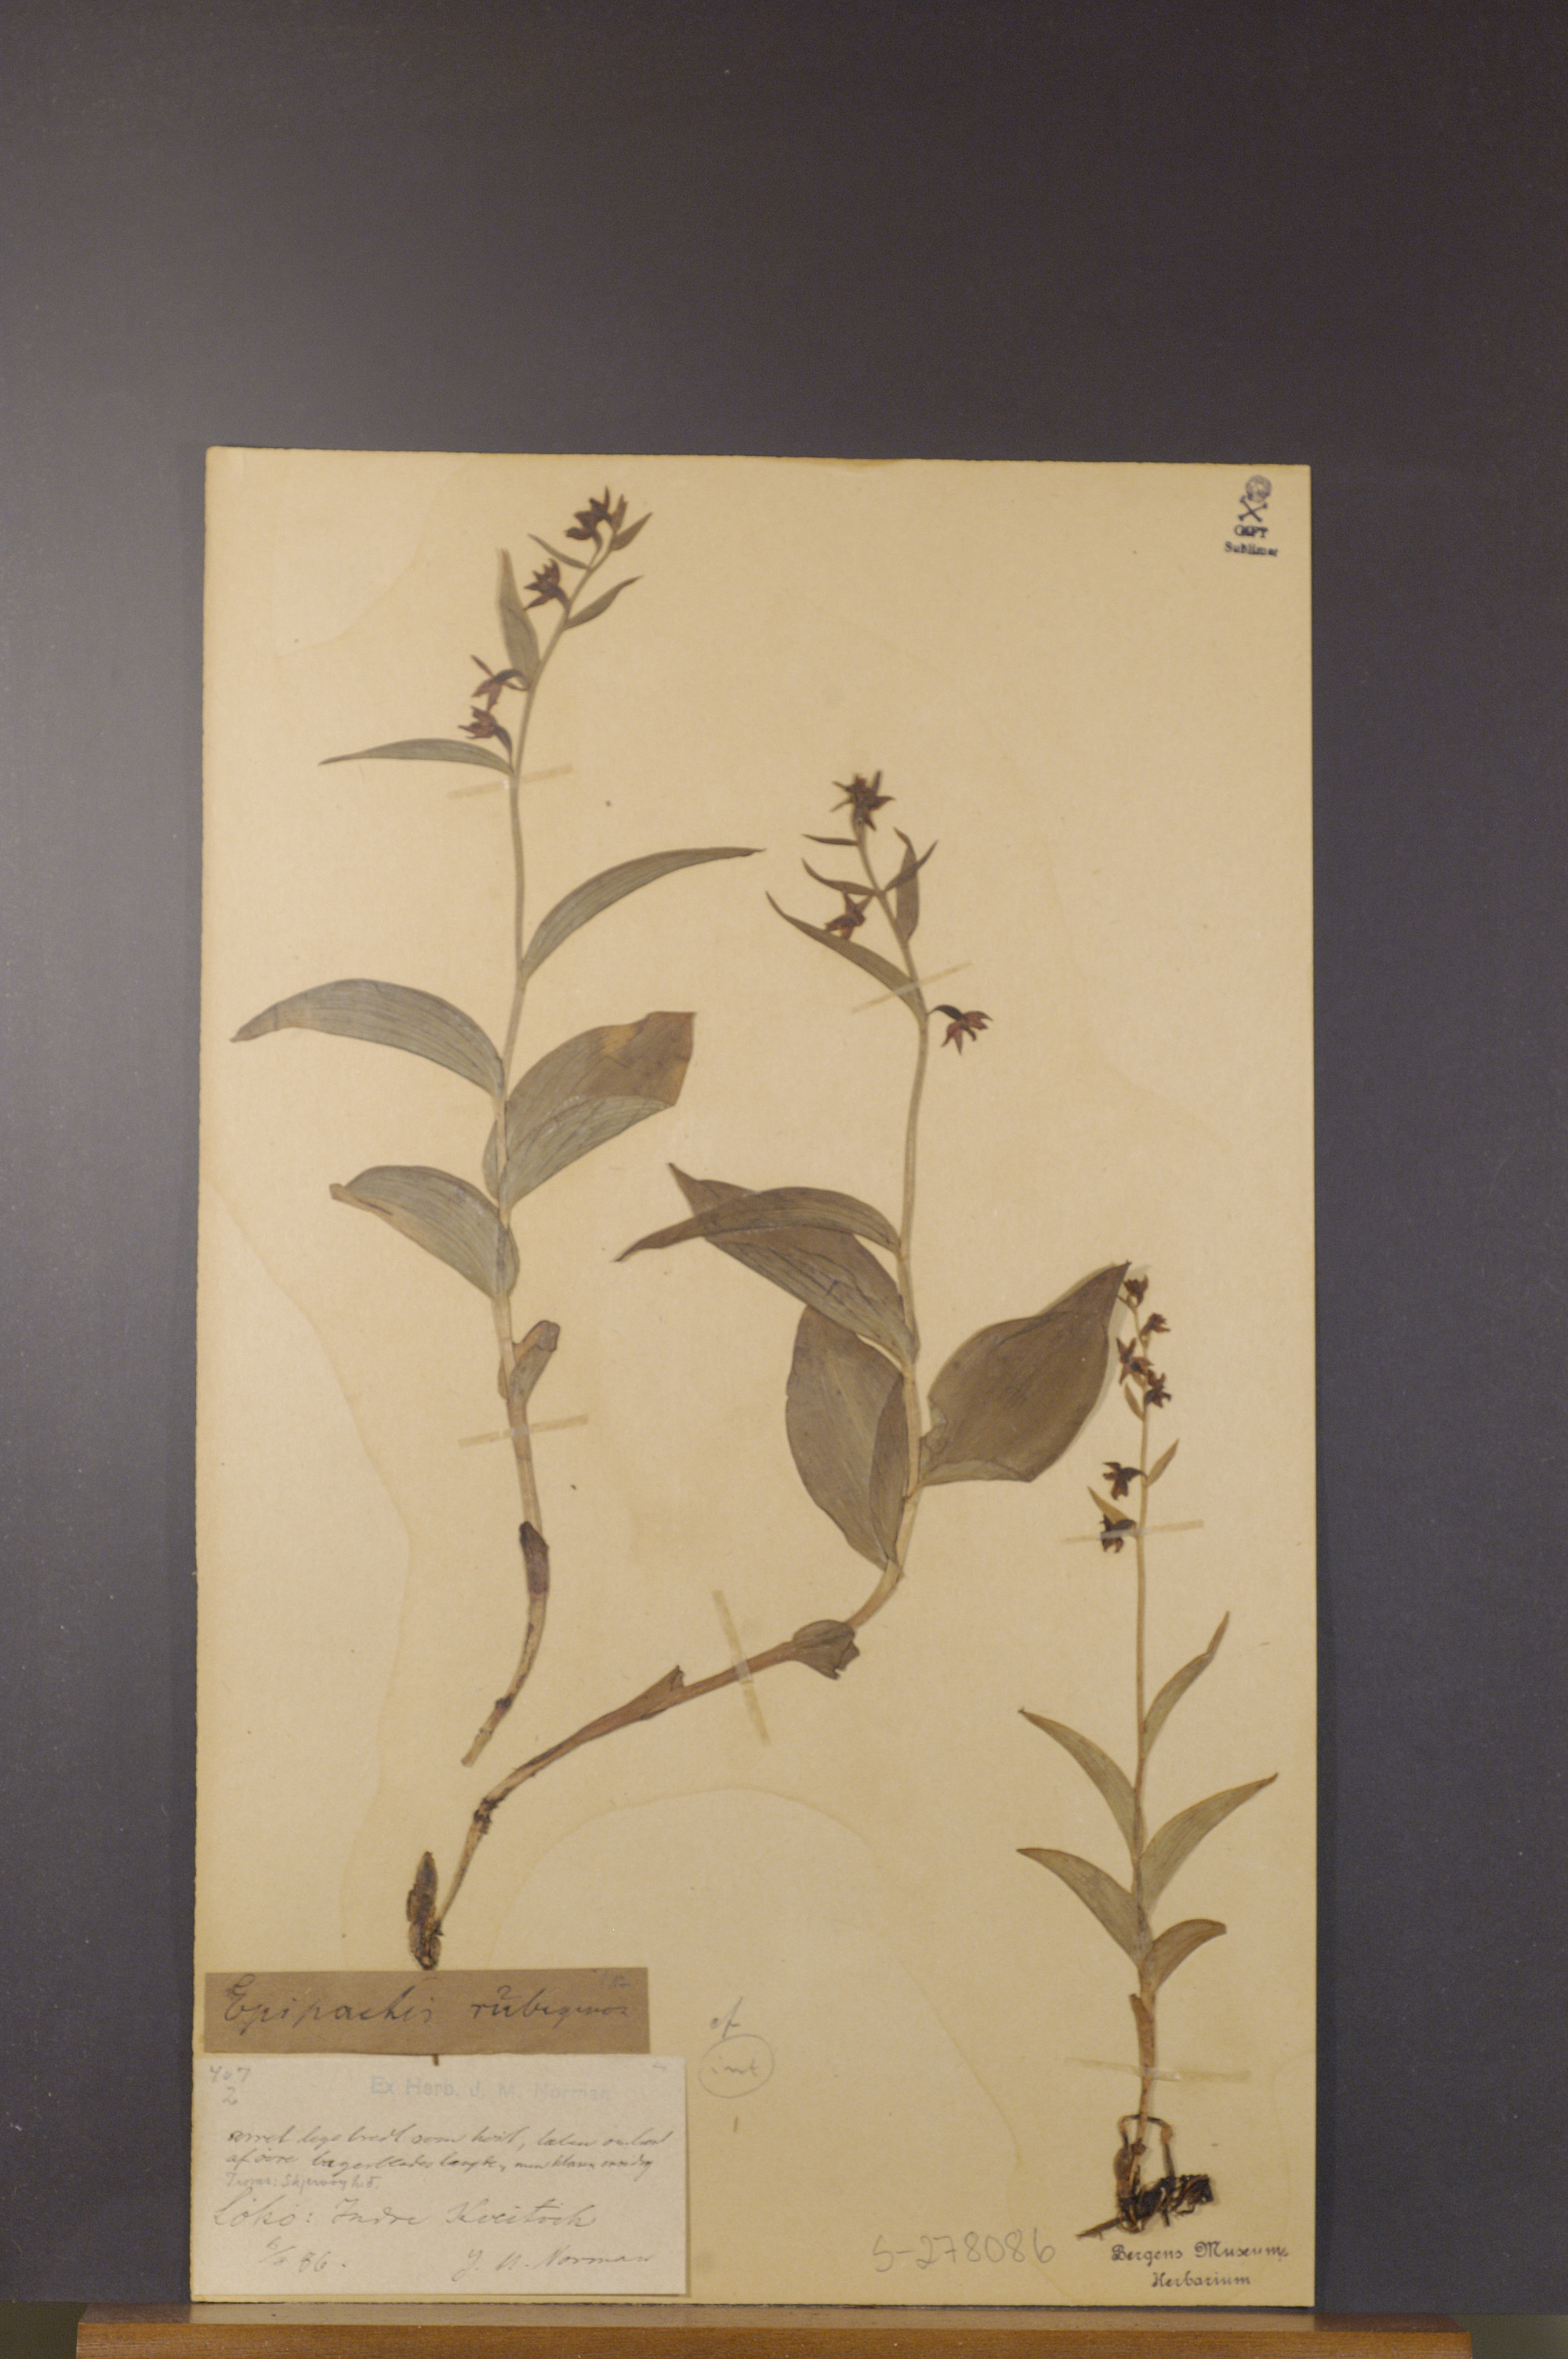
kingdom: Plantae
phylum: Tracheophyta
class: Liliopsida
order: Asparagales
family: Orchidaceae
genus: Epipactis
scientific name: Epipactis atrorubens
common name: Dark-red helleborine
